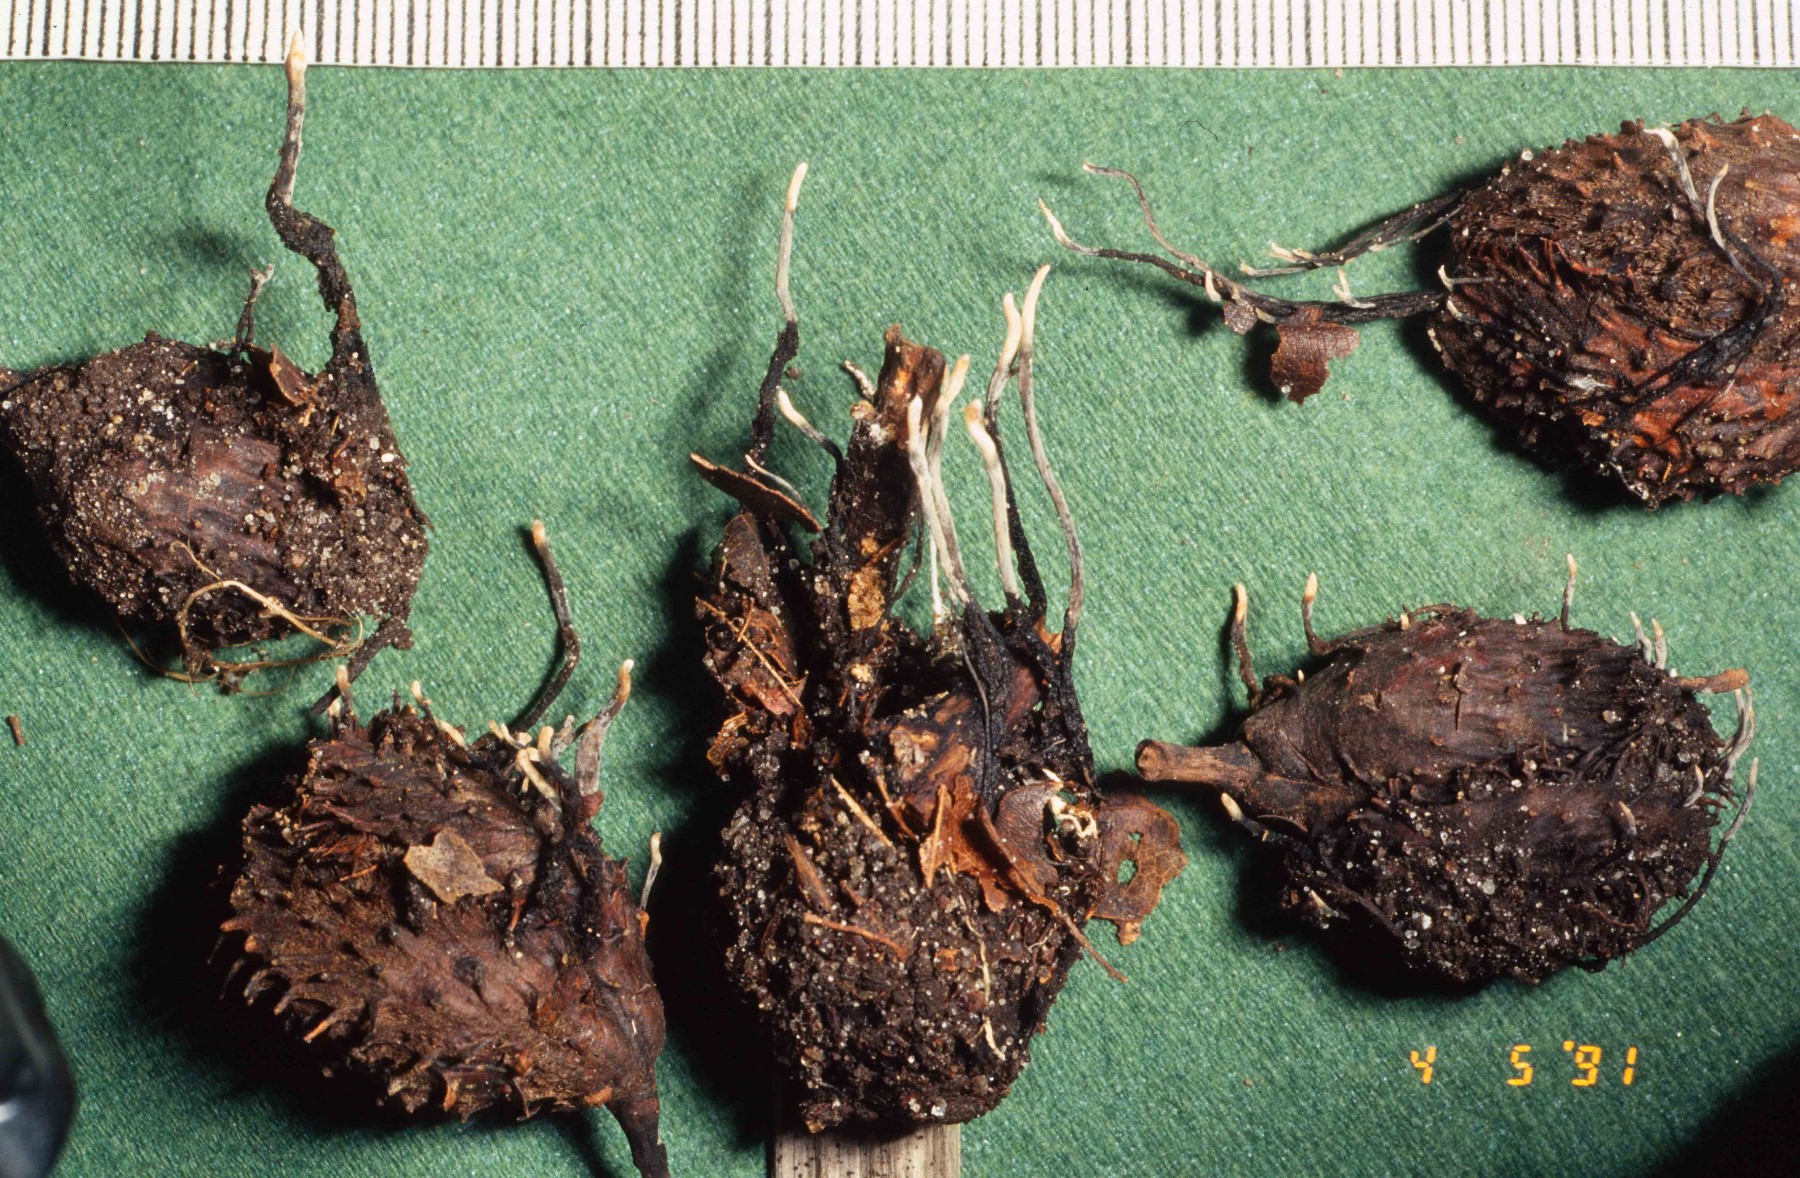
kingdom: Fungi
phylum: Ascomycota
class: Sordariomycetes
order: Xylariales
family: Xylariaceae
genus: Xylaria
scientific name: Xylaria carpophila
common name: bogskål-stødsvamp
